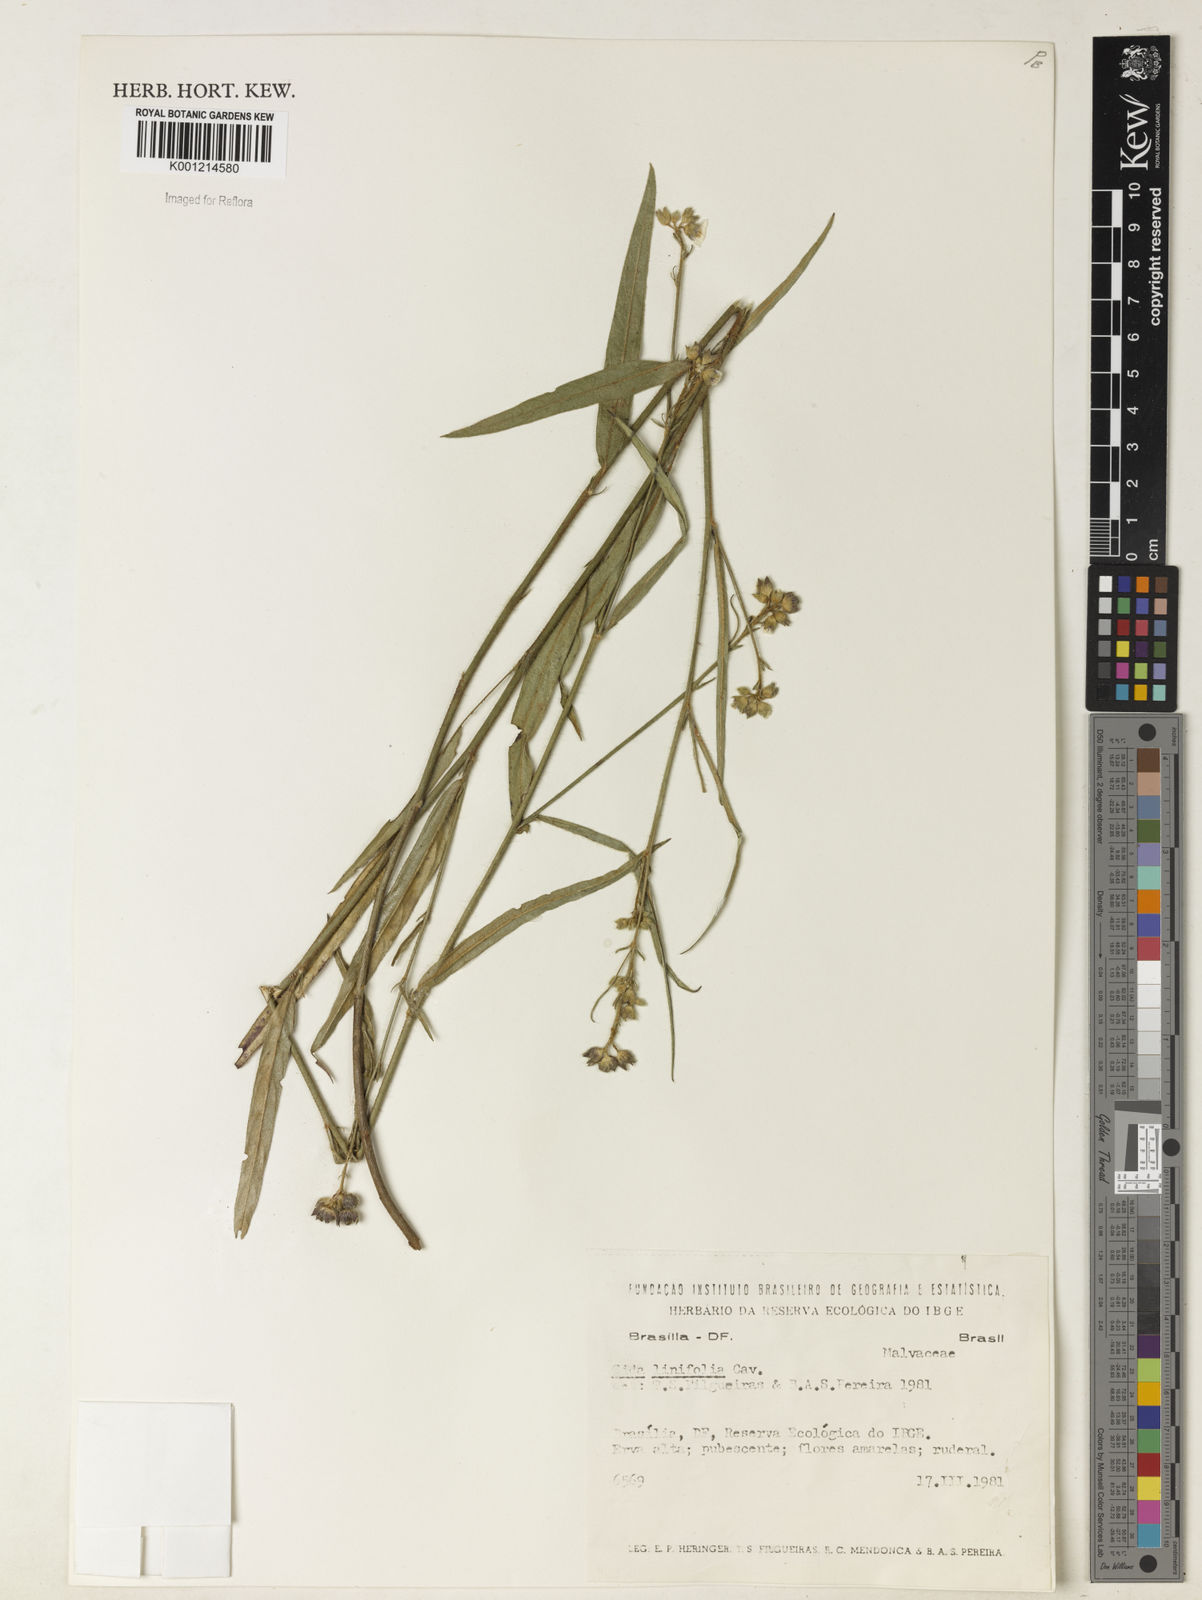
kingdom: Plantae
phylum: Tracheophyta
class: Magnoliopsida
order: Malvales
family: Malvaceae
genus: Sida
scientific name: Sida linifolia
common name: Flaxleaf fanpetals
